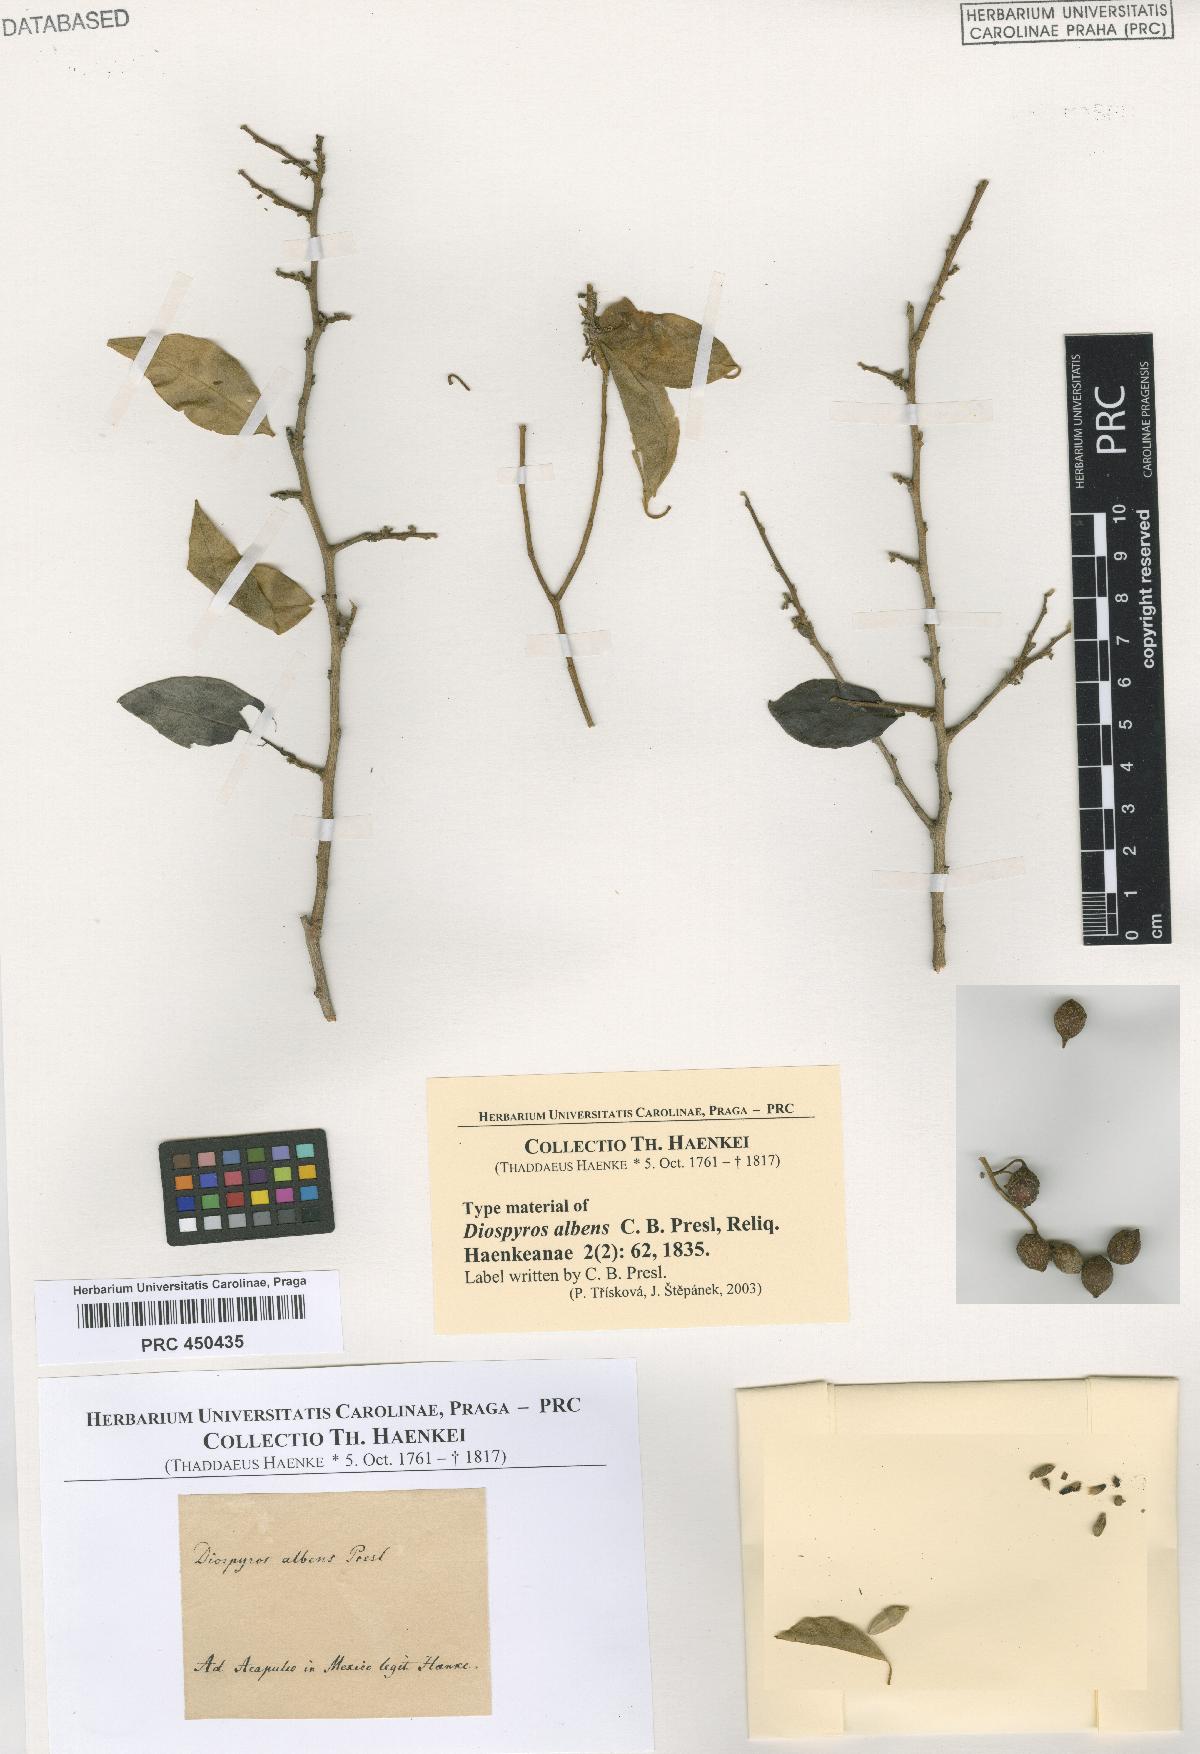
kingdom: Plantae
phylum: Tracheophyta
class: Magnoliopsida
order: Ericales
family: Ebenaceae
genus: Diospyros
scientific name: Diospyros salicifolia
